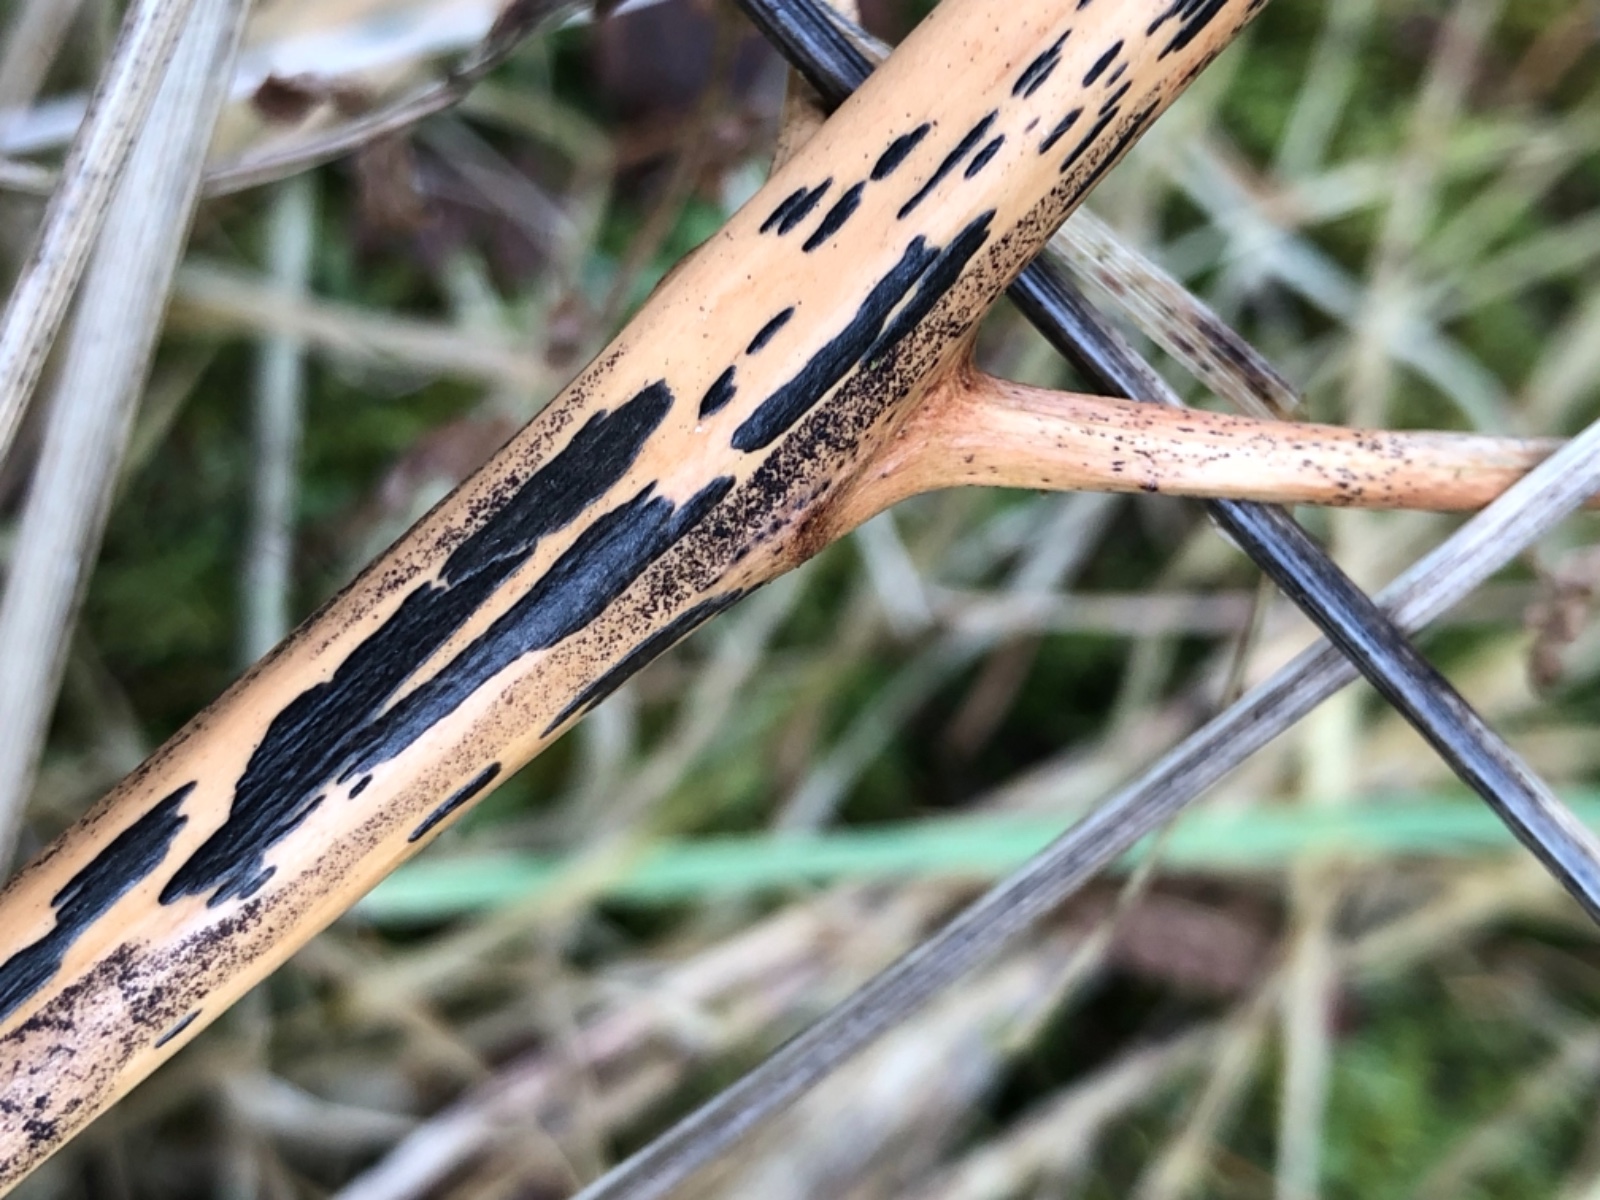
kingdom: Fungi
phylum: Ascomycota
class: Dothideomycetes
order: Pleosporales
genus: Rhopographus
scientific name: Rhopographus filicinus
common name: Bracken map
